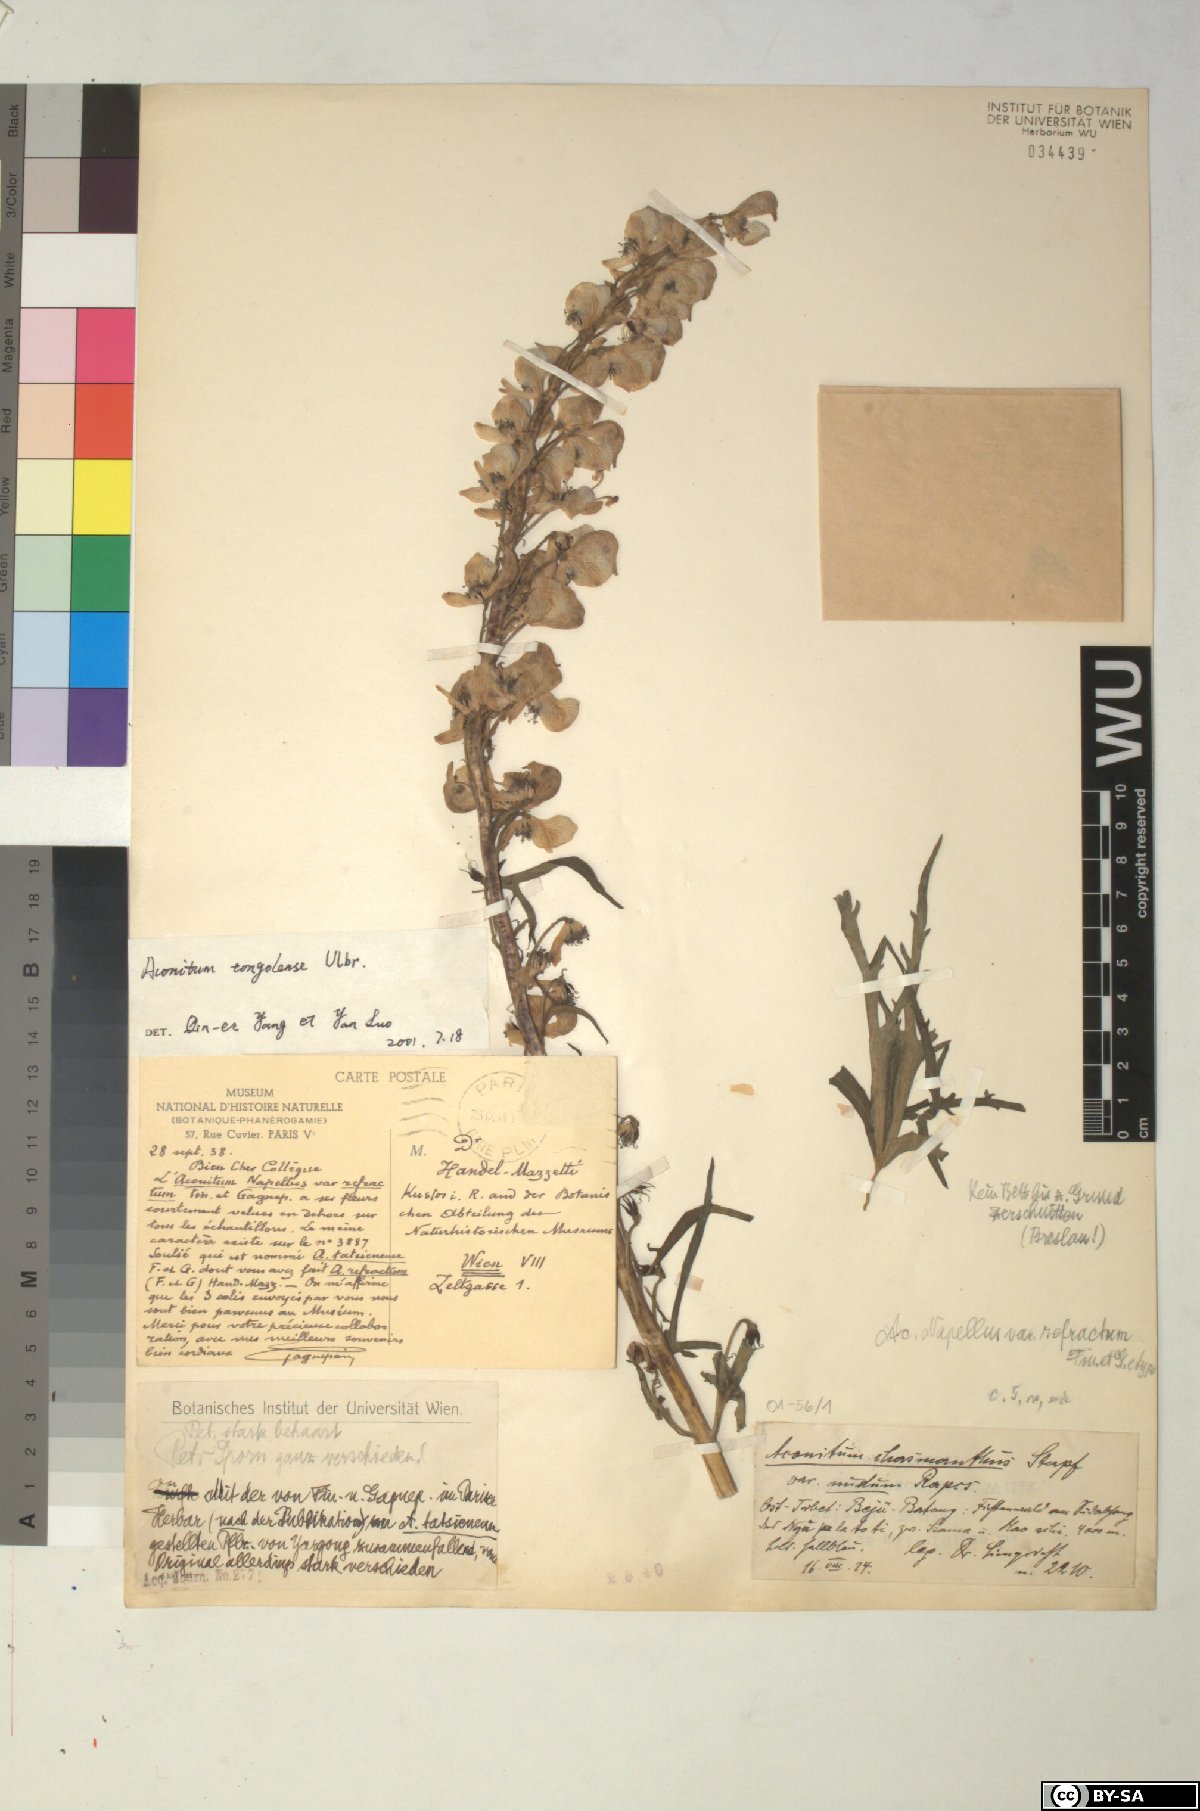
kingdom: Plantae
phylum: Tracheophyta
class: Magnoliopsida
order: Ranunculales
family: Ranunculaceae
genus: Aconitum
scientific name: Aconitum tongolense
